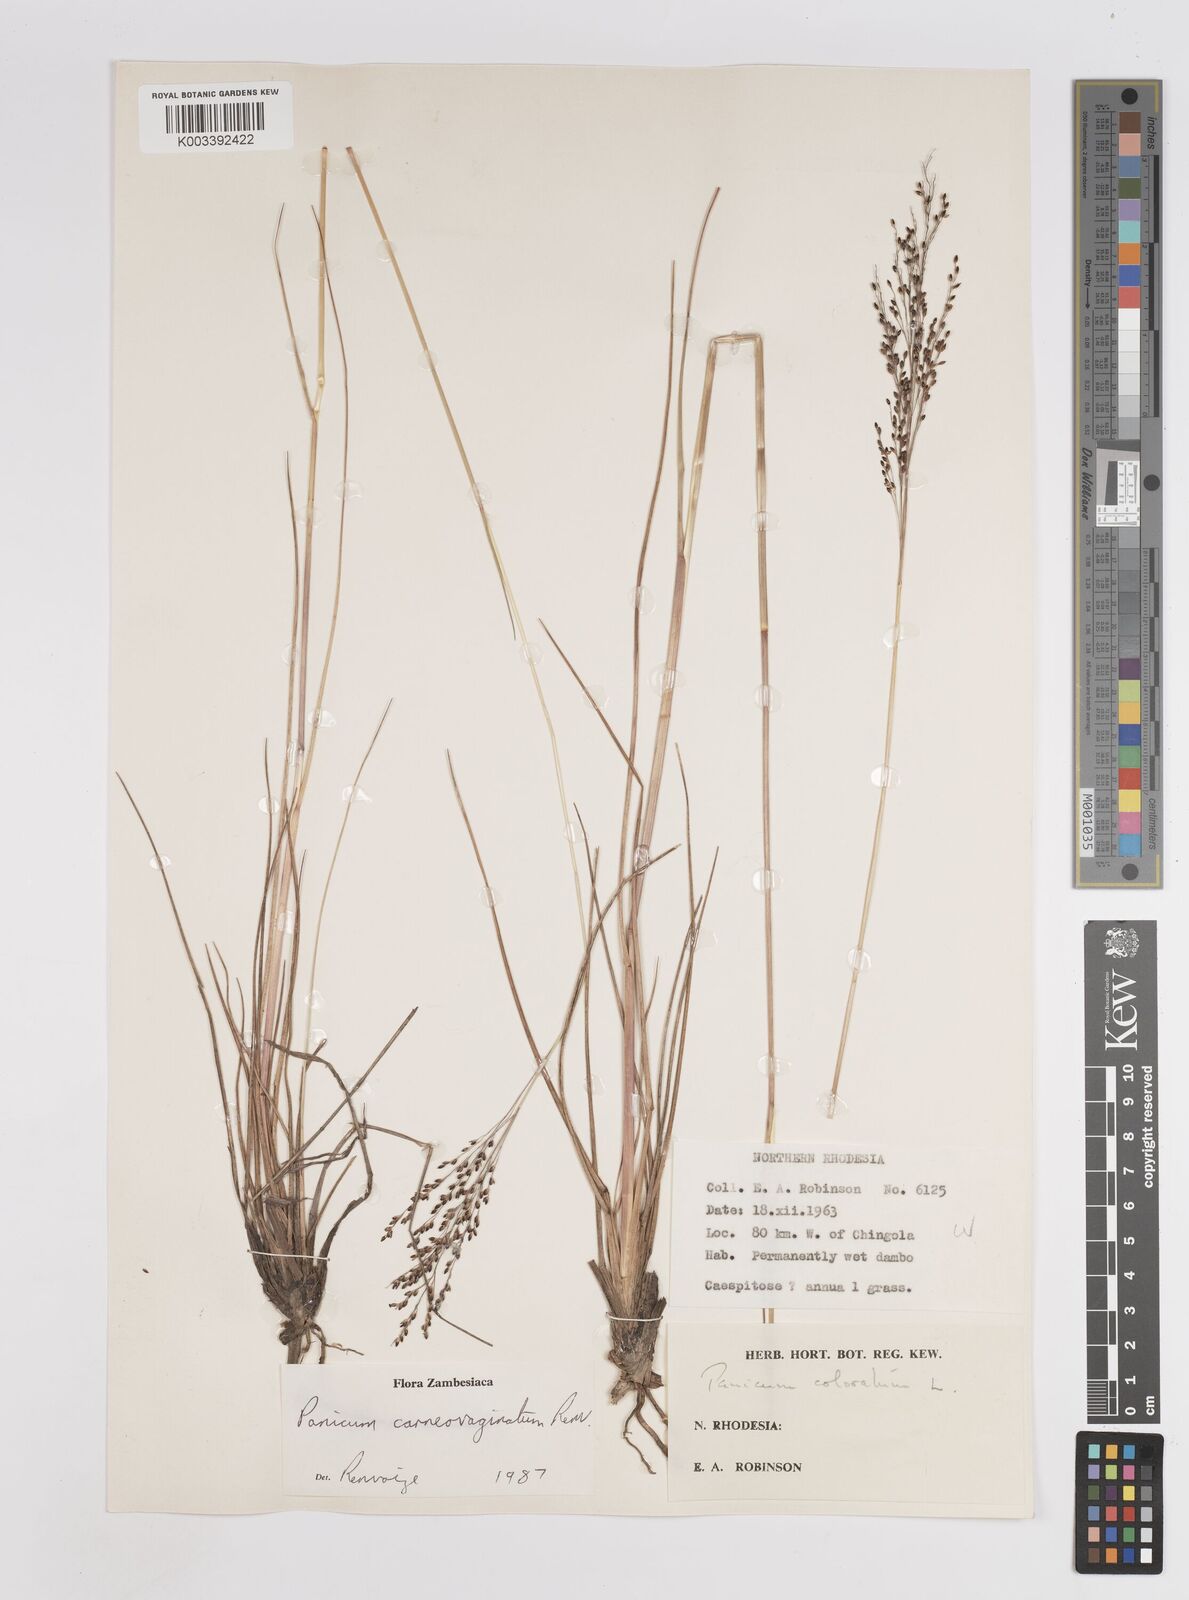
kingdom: Plantae
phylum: Tracheophyta
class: Liliopsida
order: Poales
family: Poaceae
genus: Panicum
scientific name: Panicum carneovaginatum
